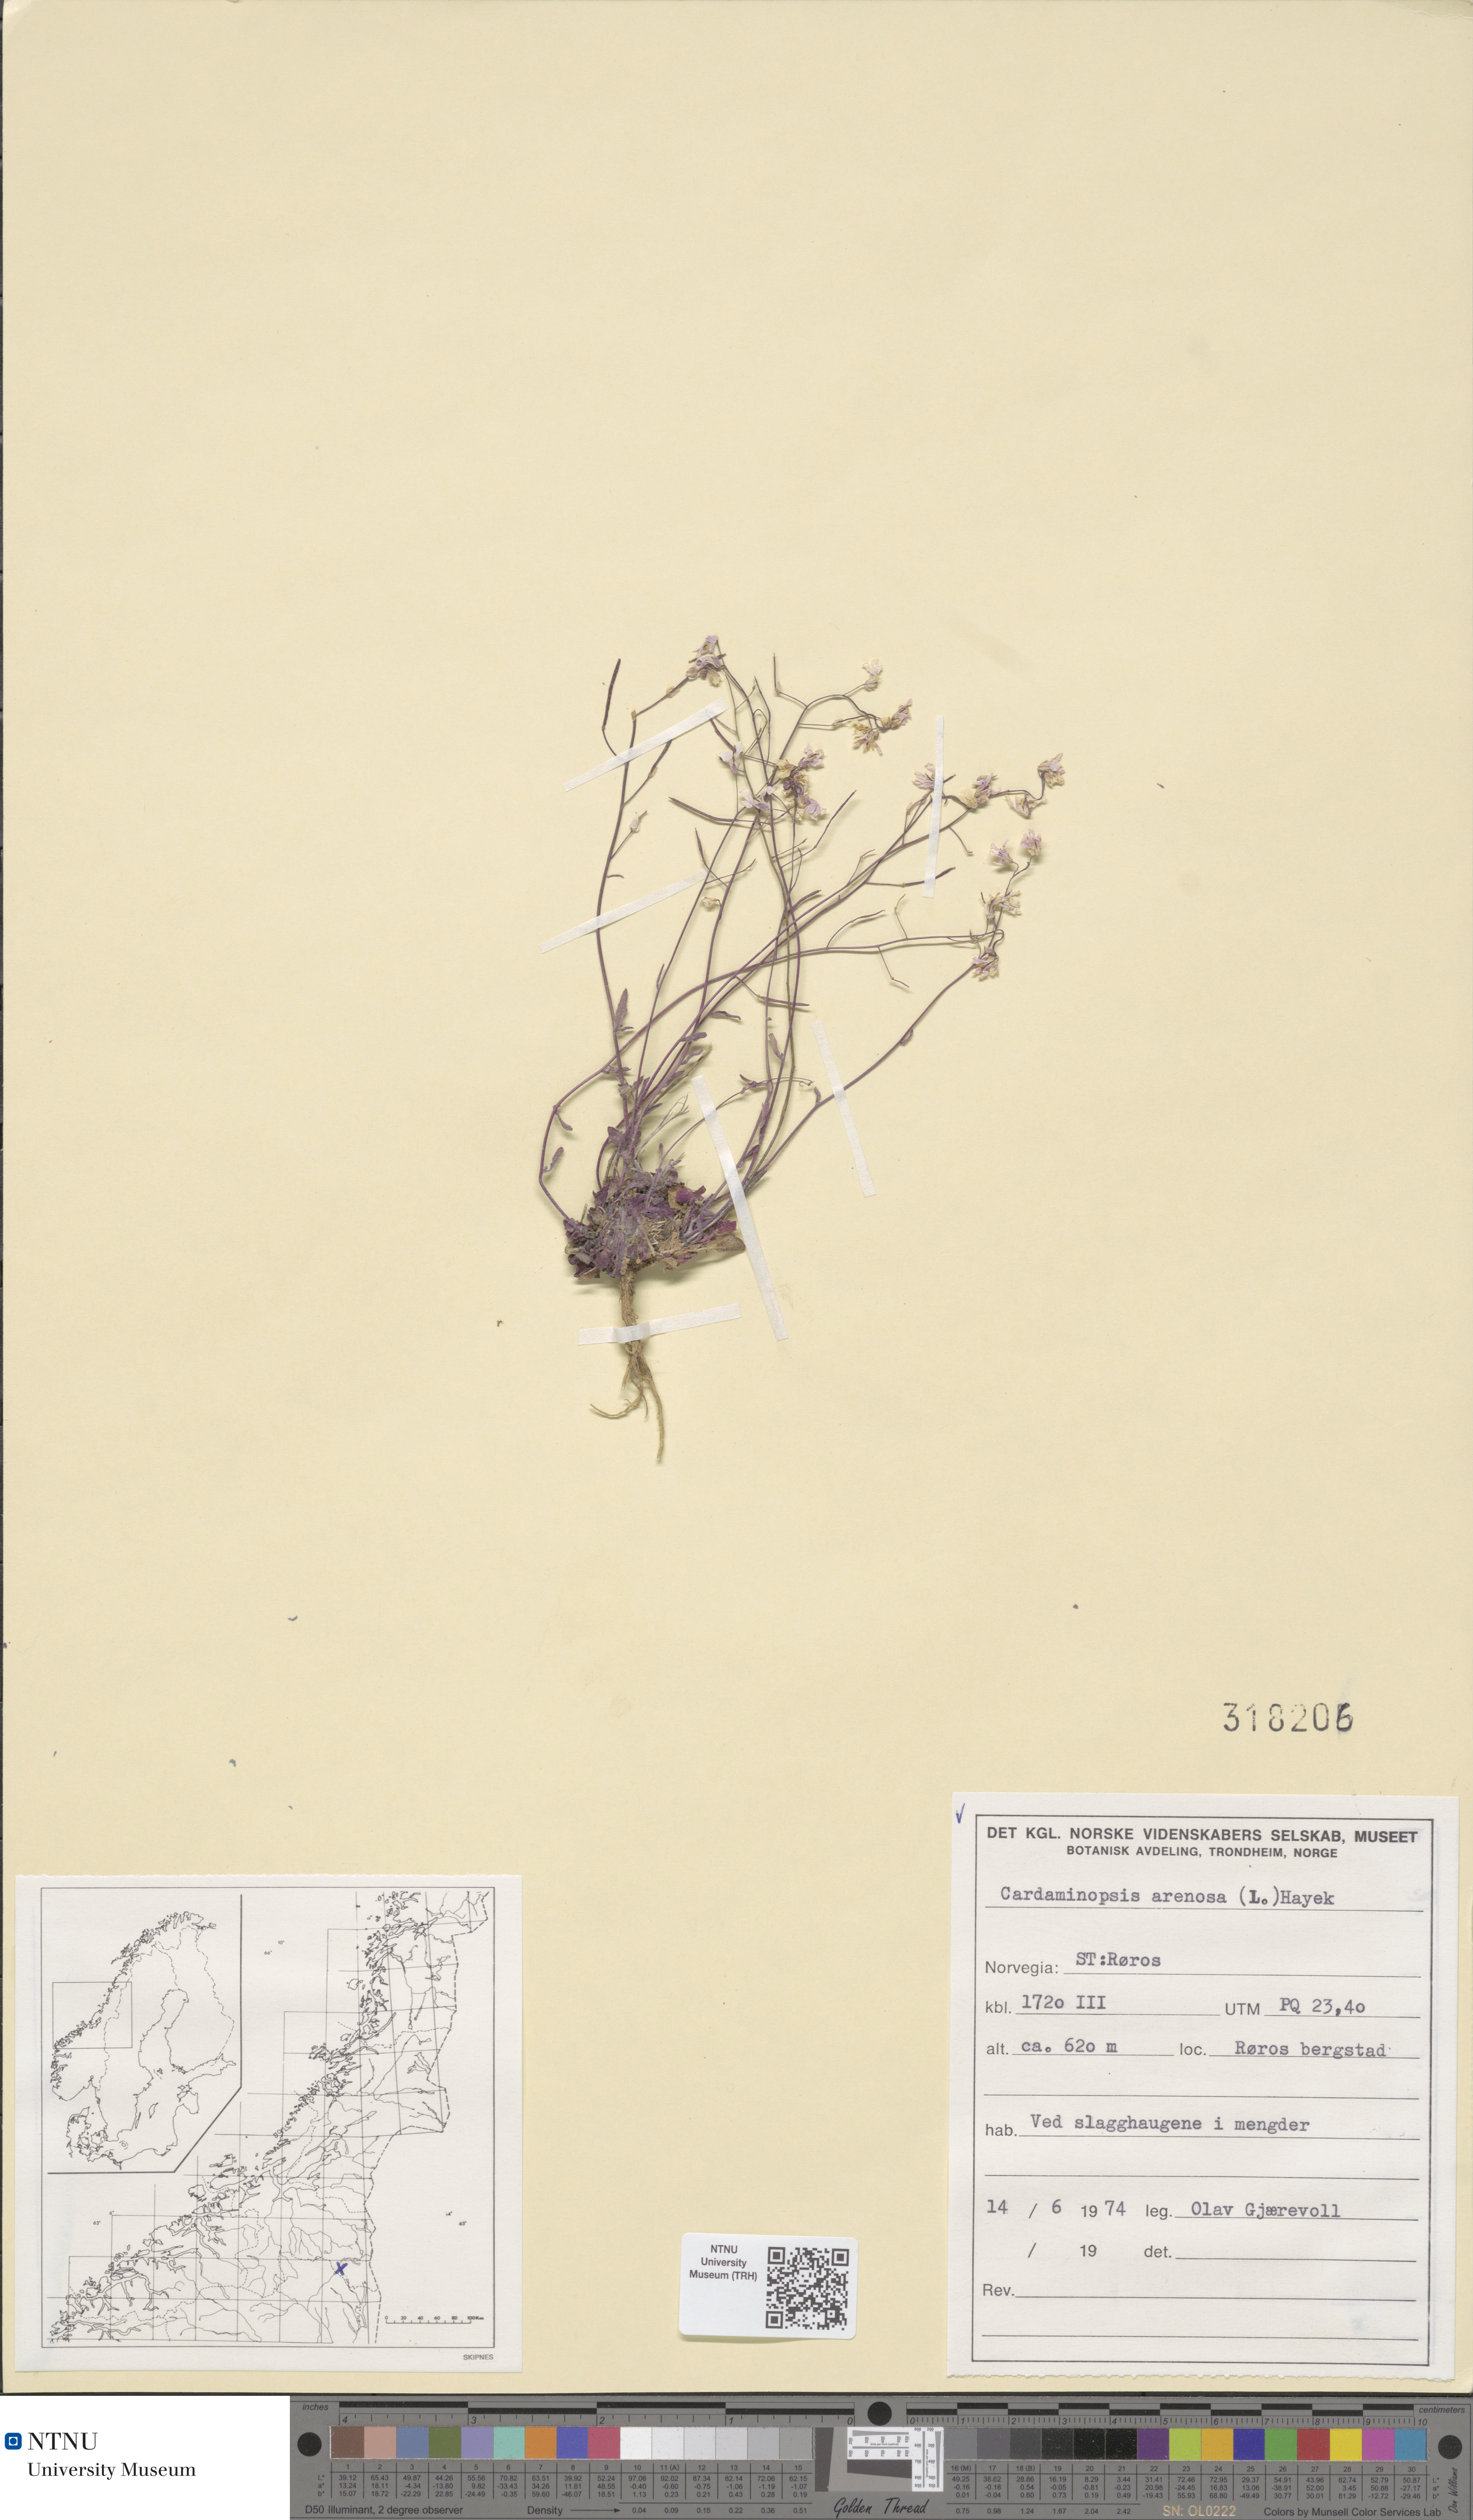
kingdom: Plantae
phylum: Tracheophyta
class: Magnoliopsida
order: Brassicales
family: Brassicaceae
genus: Arabidopsis
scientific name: Arabidopsis arenosa
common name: Sand rock-cress
